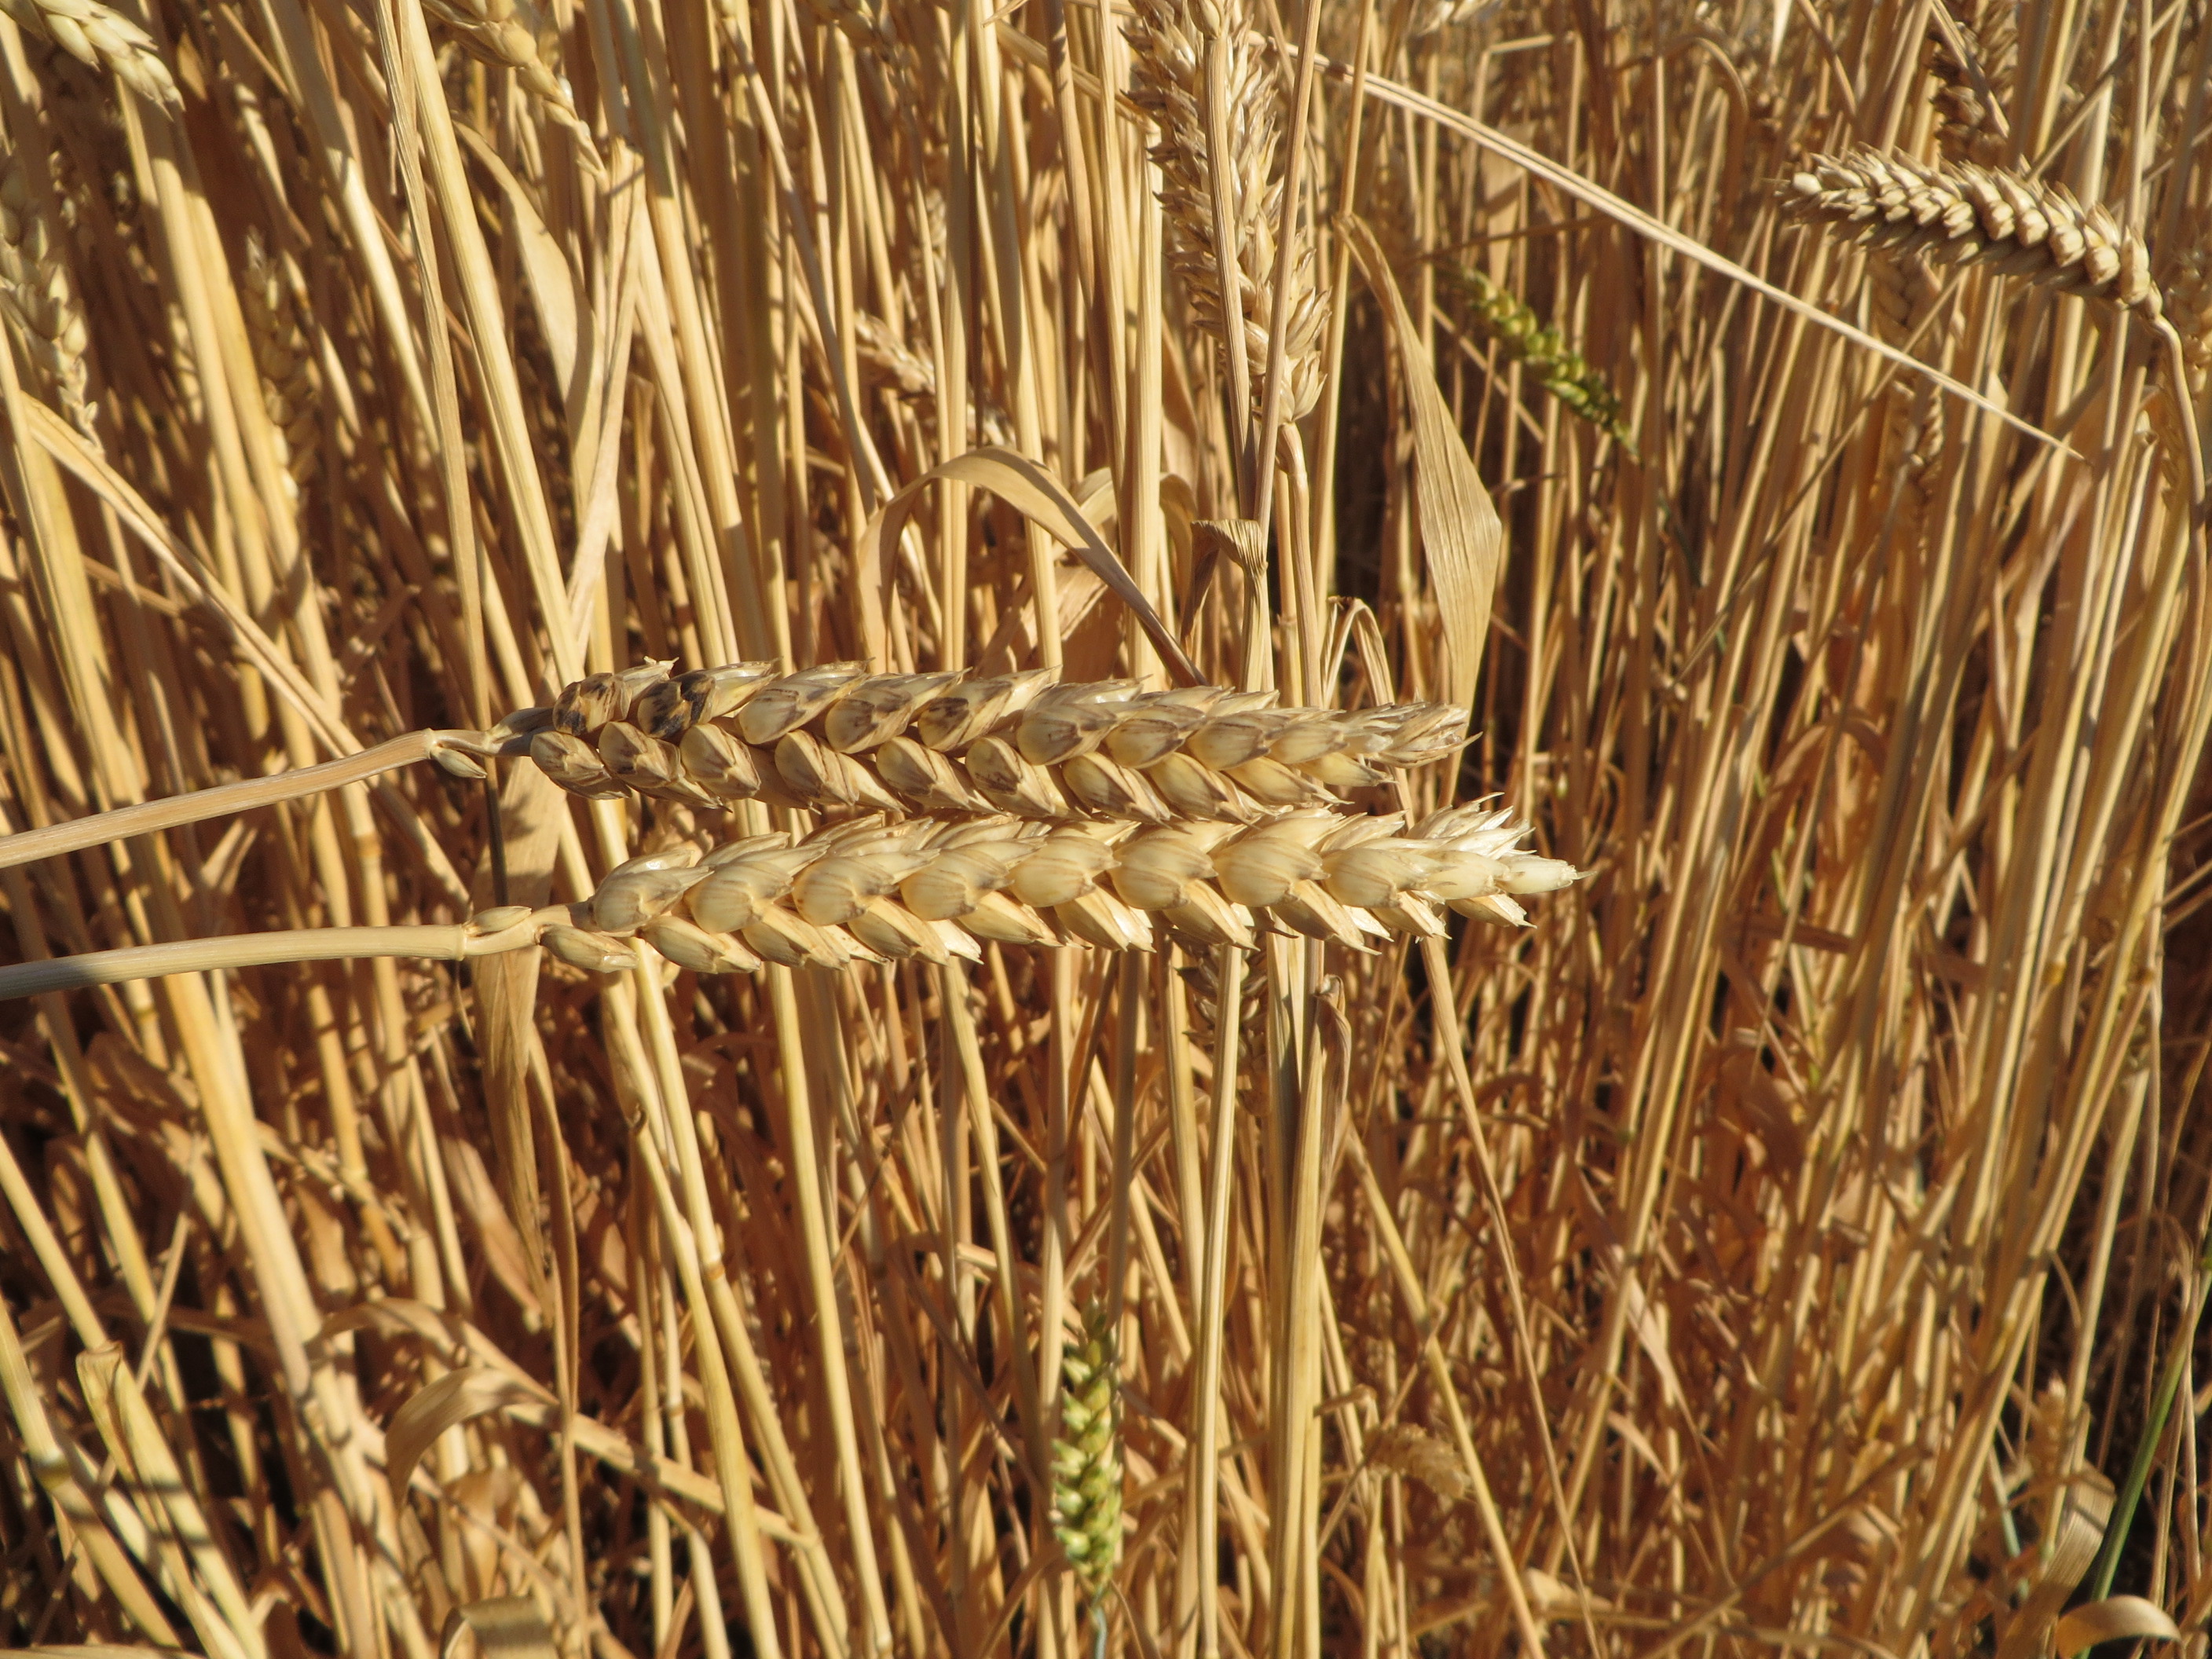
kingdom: Plantae
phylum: Tracheophyta
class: Liliopsida
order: Poales
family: Poaceae
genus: Triticum
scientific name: Triticum aestivum
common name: Common wheat
